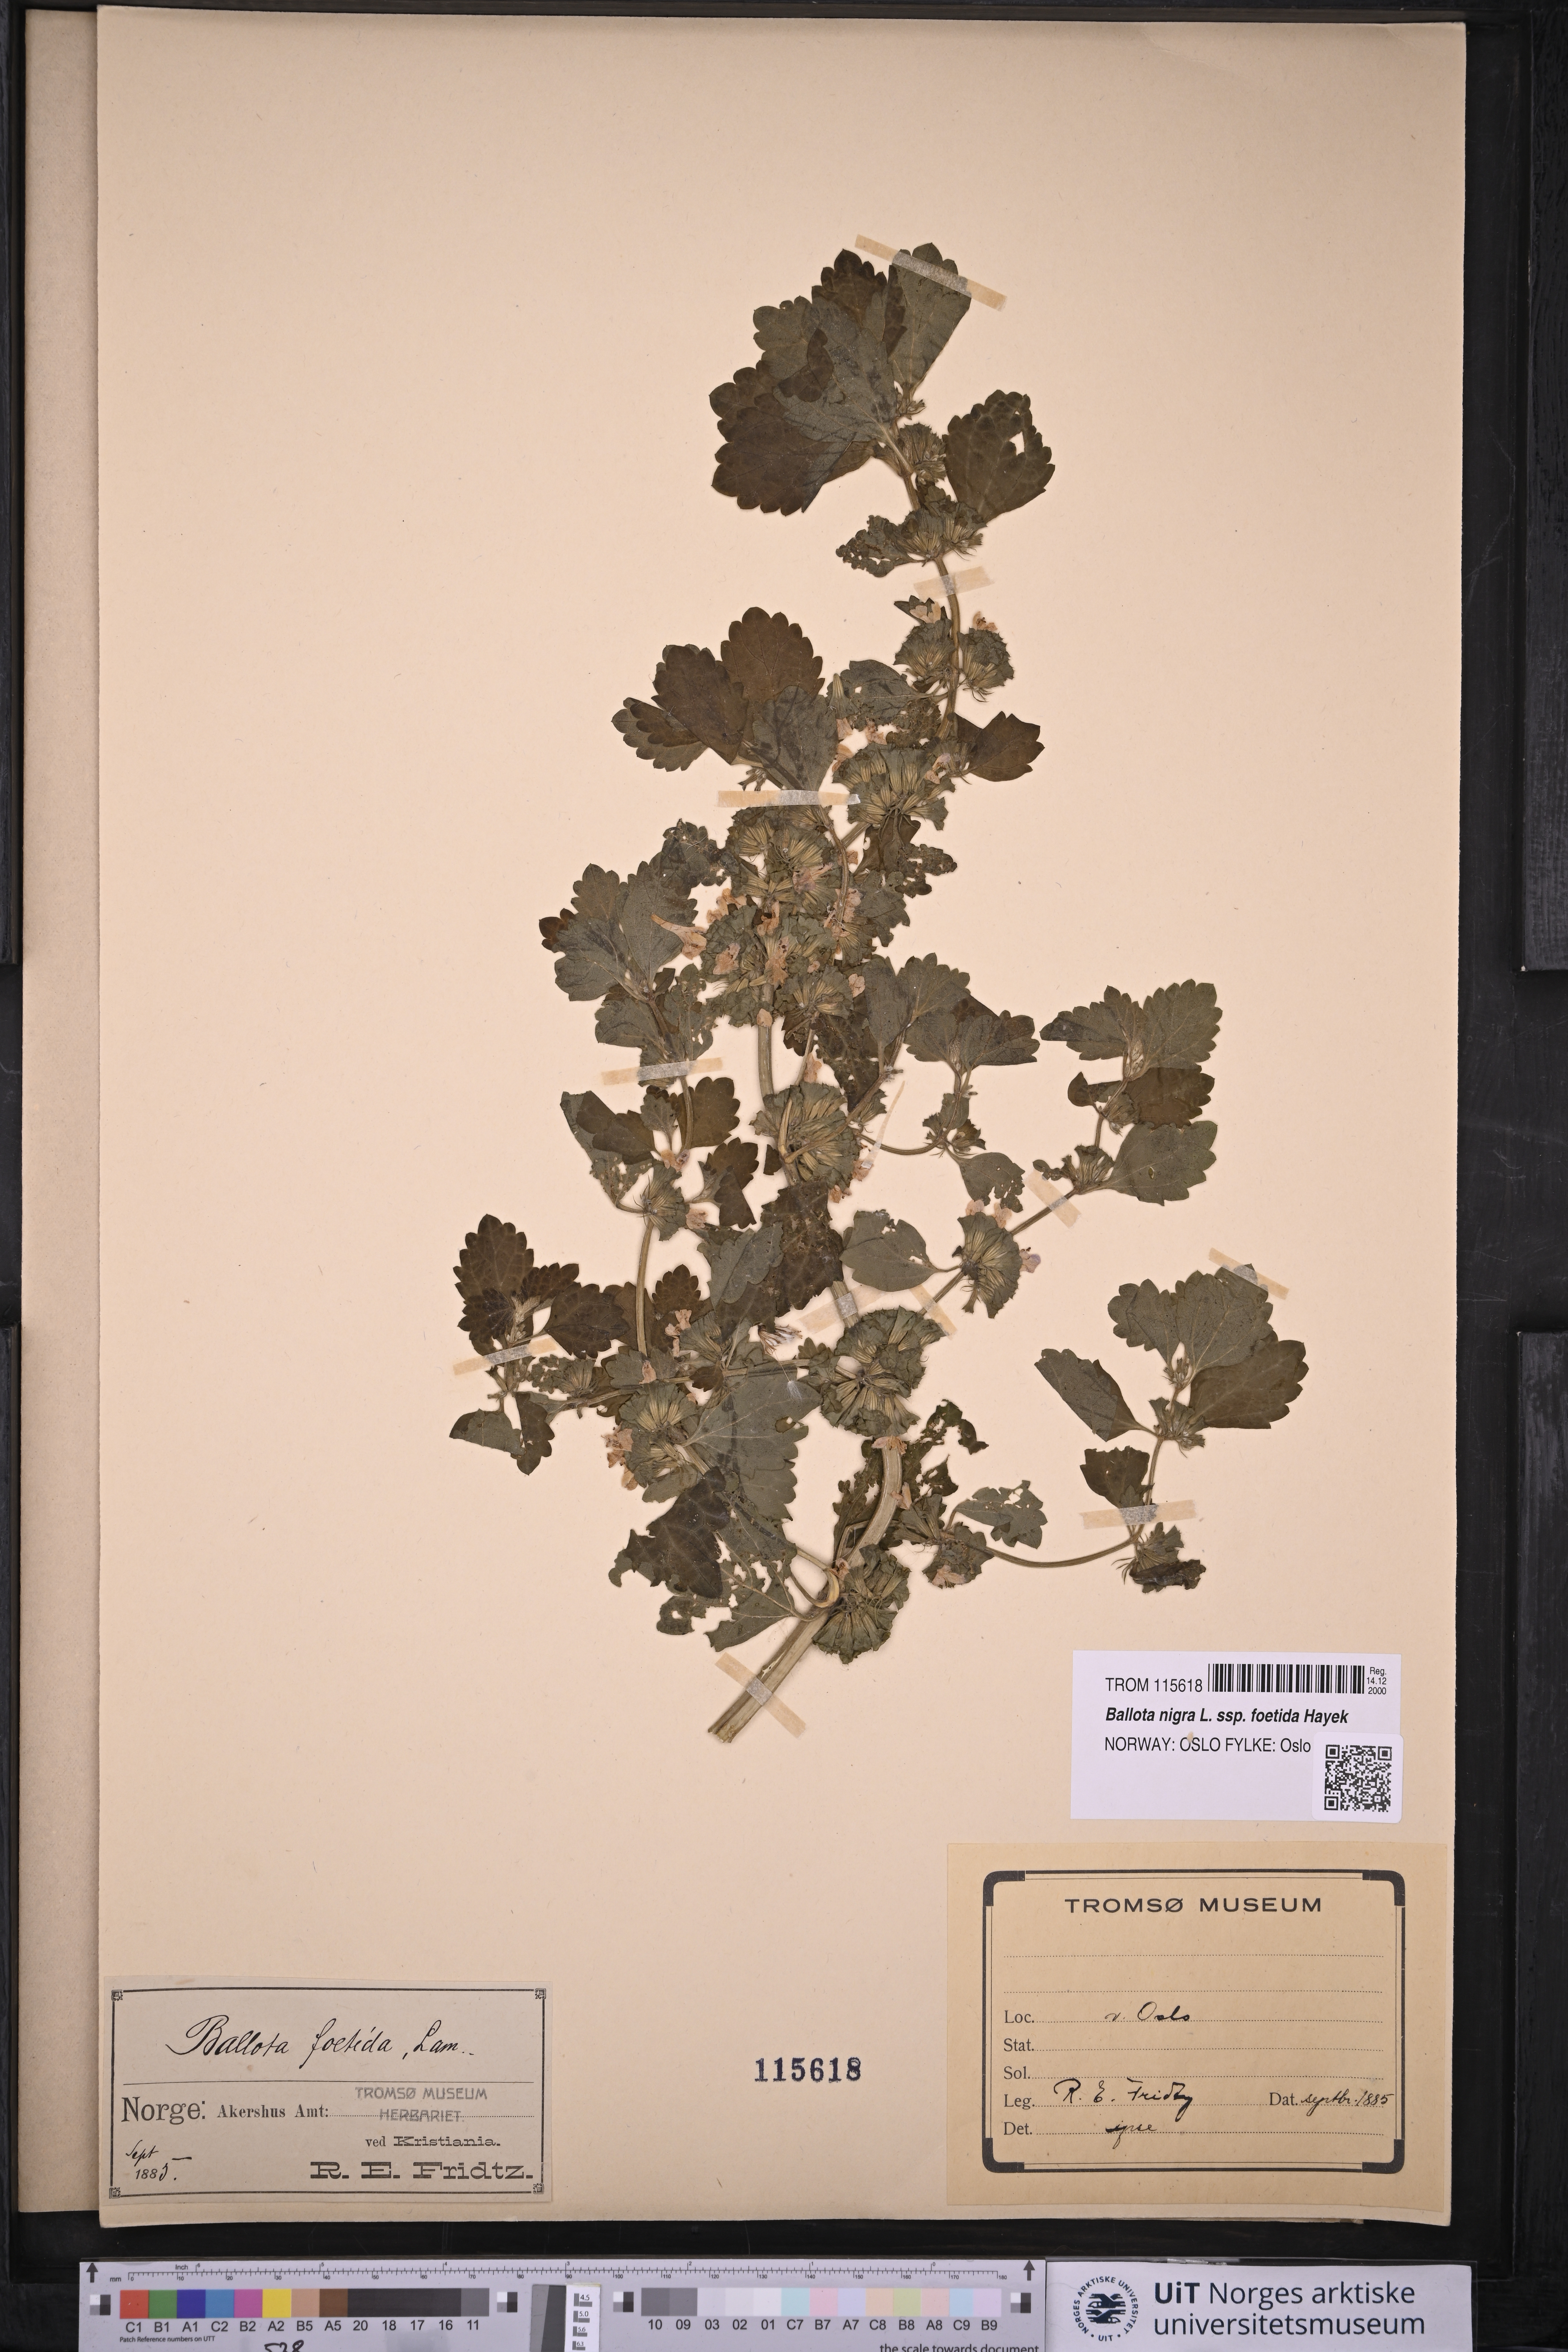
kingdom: Plantae
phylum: Tracheophyta
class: Magnoliopsida
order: Lamiales
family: Lamiaceae
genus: Ballota
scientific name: Ballota nigra
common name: Black horehound
